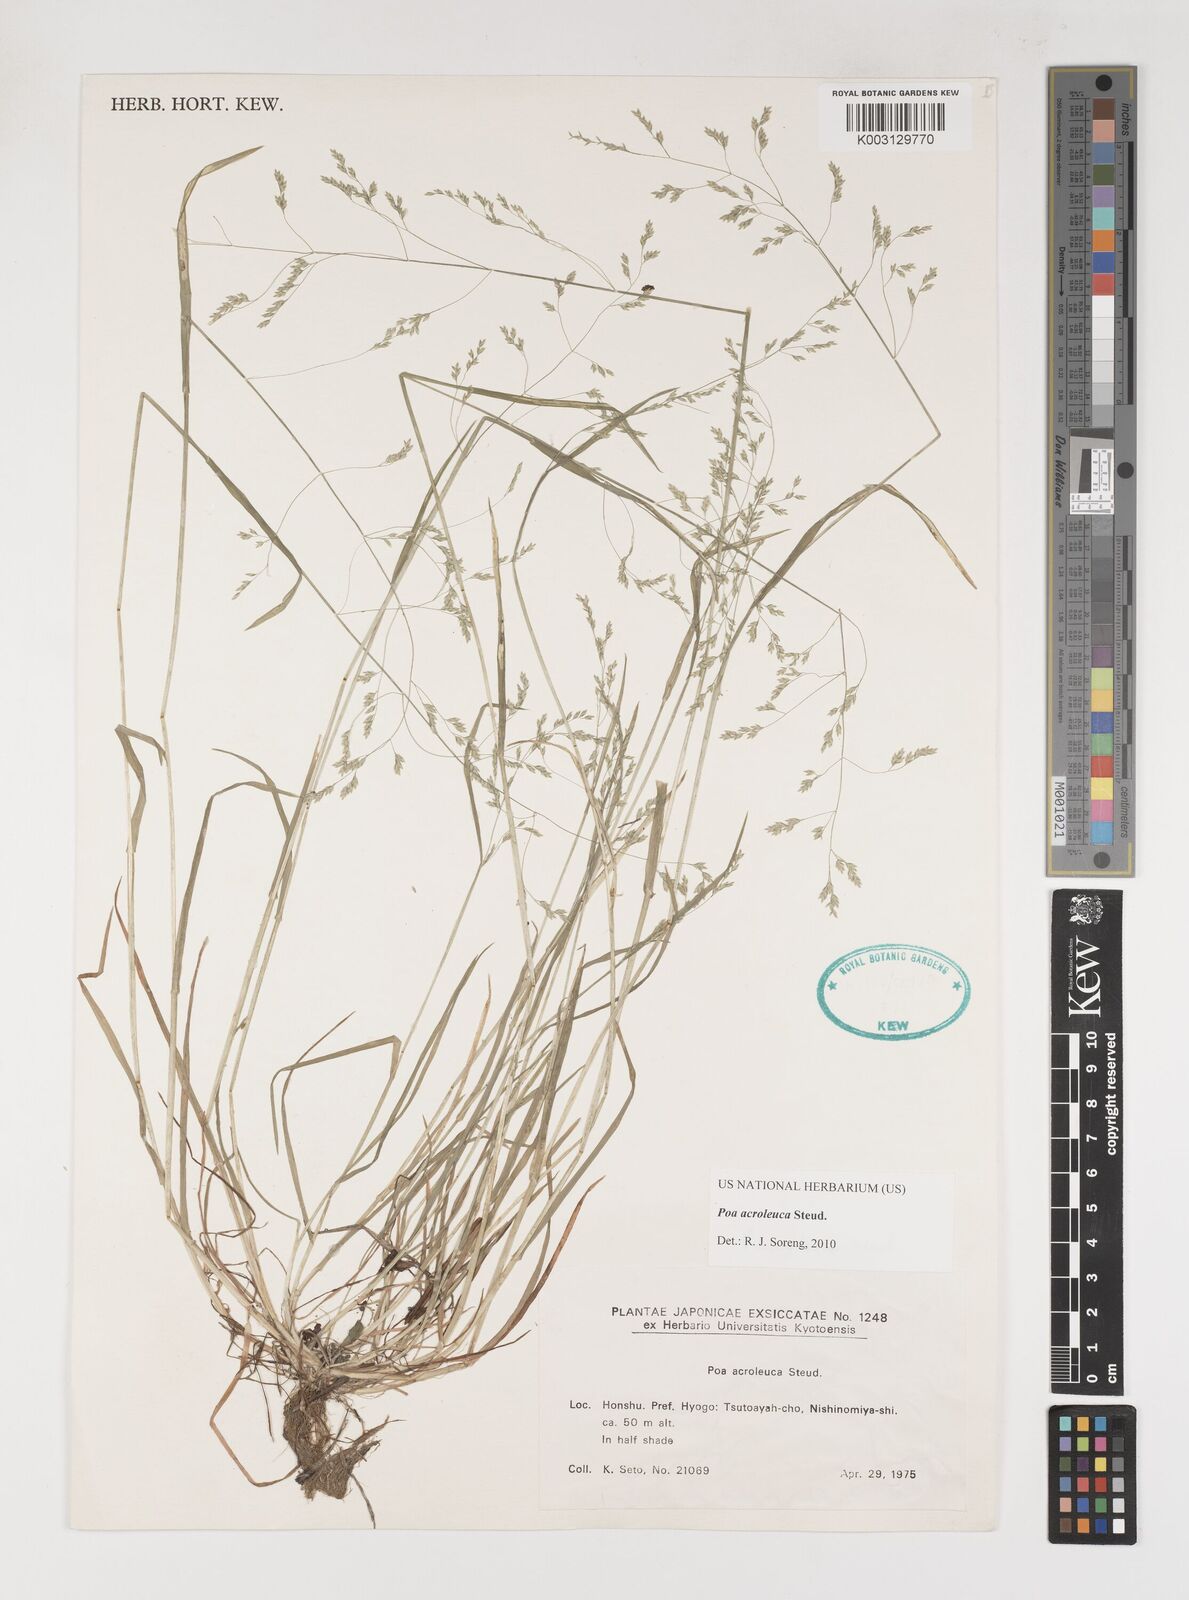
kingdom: Plantae
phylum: Tracheophyta
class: Liliopsida
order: Poales
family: Poaceae
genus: Poa
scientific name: Poa acroleuca
